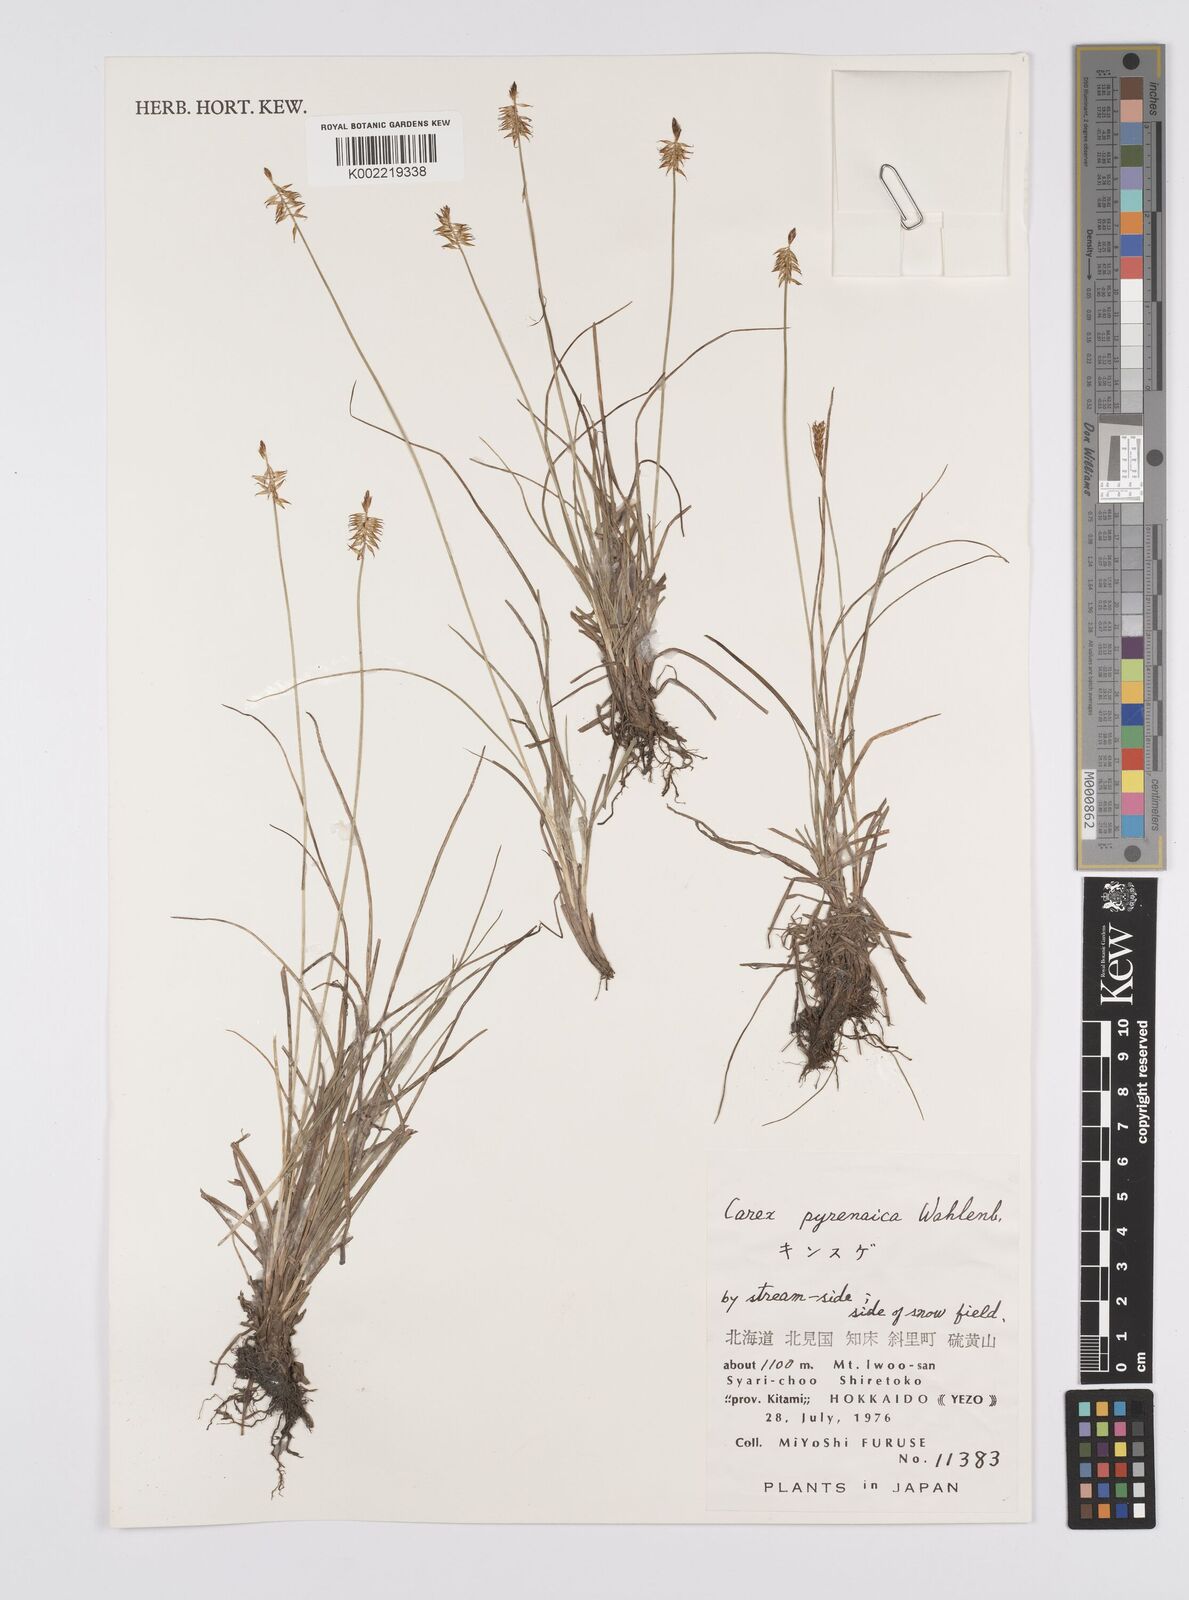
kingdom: Plantae
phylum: Tracheophyta
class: Liliopsida
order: Poales
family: Cyperaceae
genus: Carex
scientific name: Carex pyrenaica
